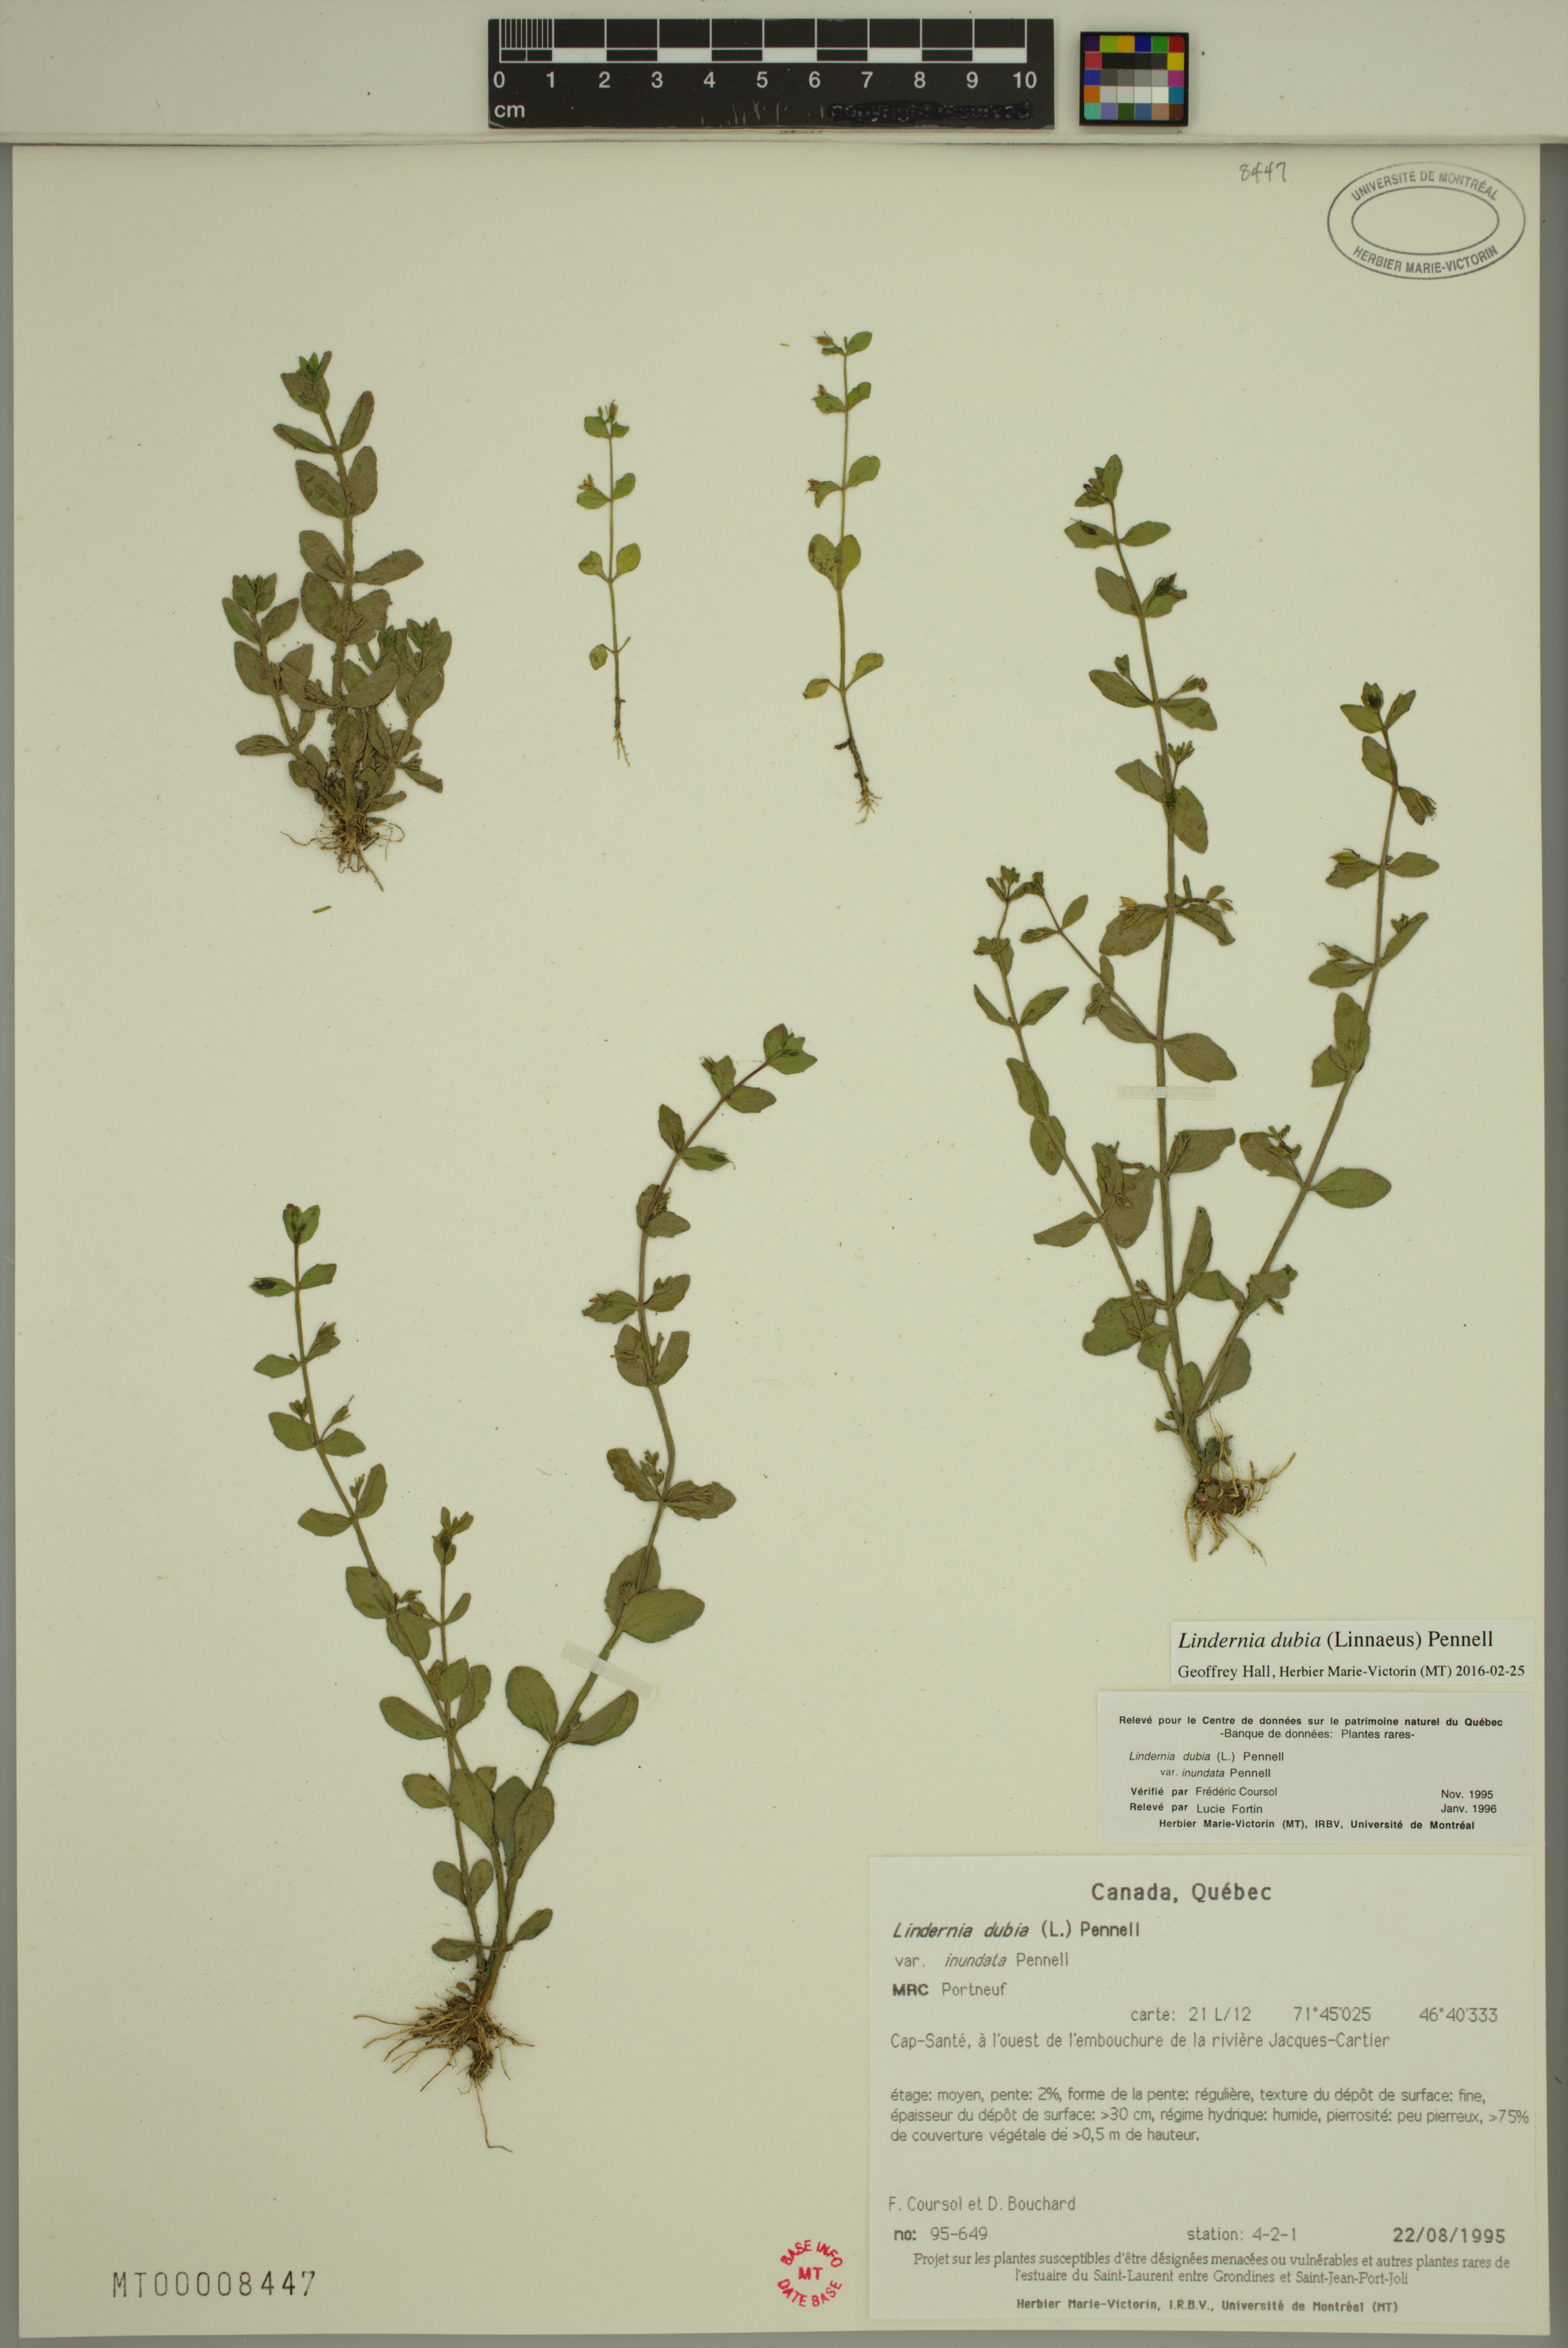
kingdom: Plantae
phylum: Tracheophyta
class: Magnoliopsida
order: Lamiales
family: Linderniaceae
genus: Lindernia
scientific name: Lindernia dubia
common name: Annual false pimpernel
